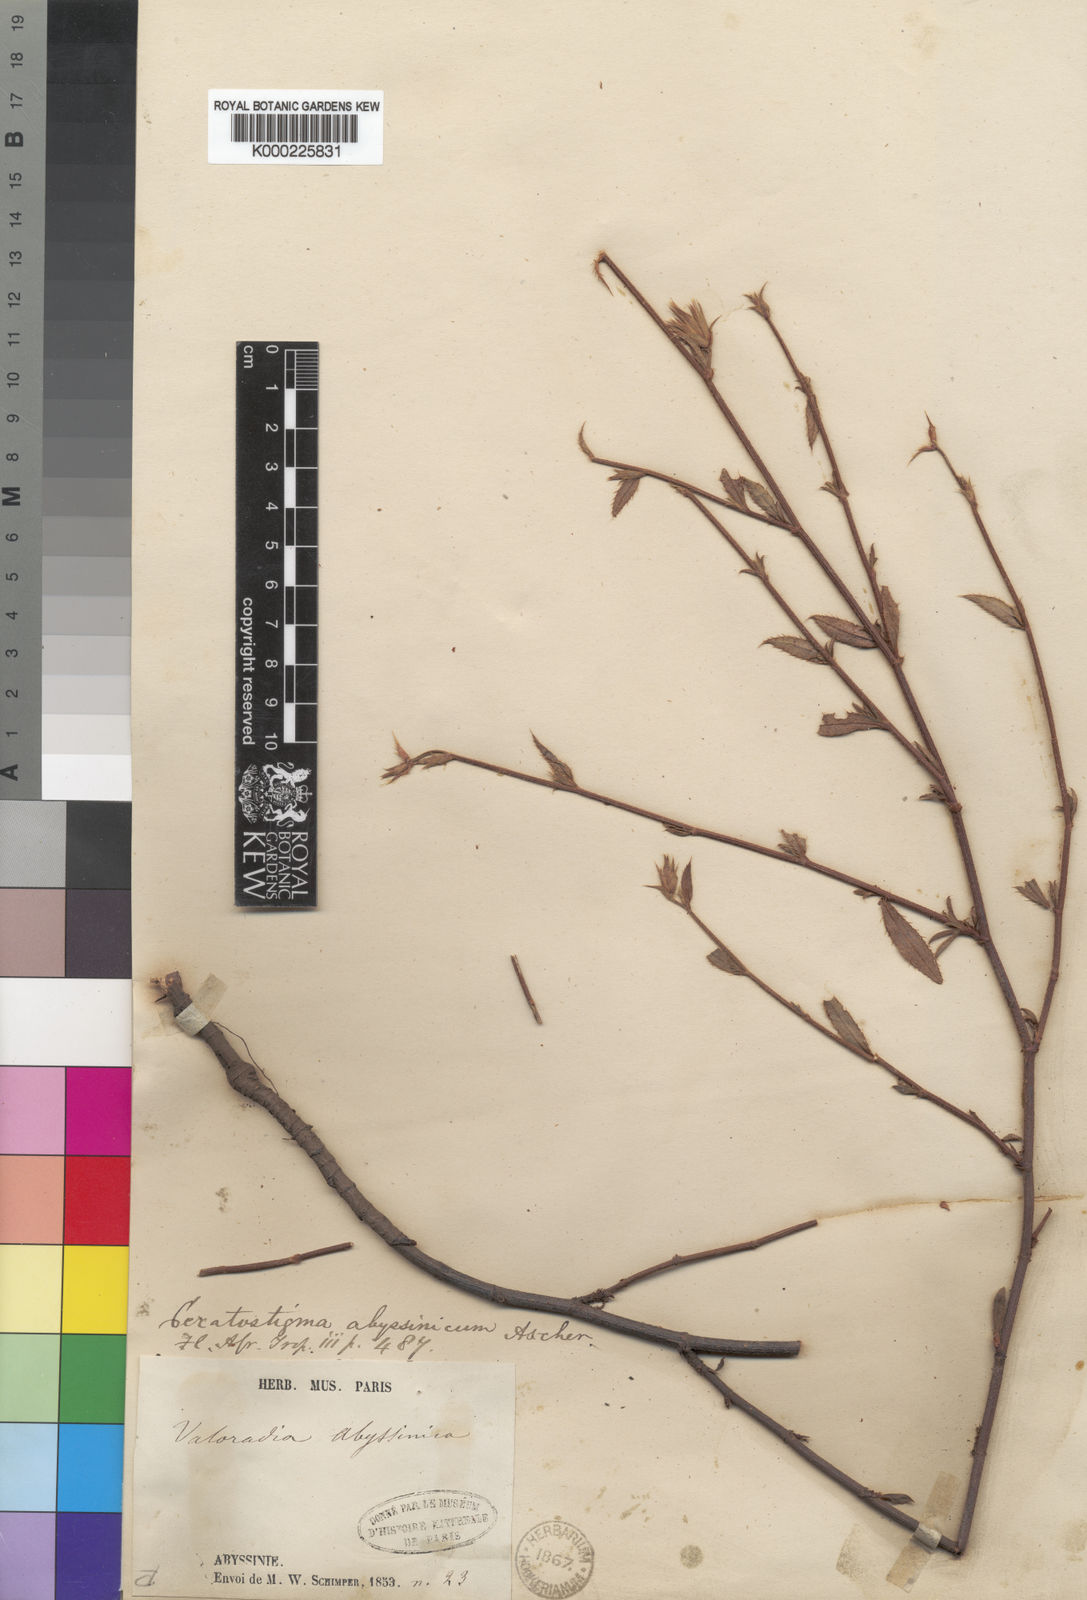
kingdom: Plantae
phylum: Tracheophyta
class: Magnoliopsida
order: Caryophyllales
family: Plumbaginaceae
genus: Ceratostigma
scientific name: Ceratostigma abyssinicum
